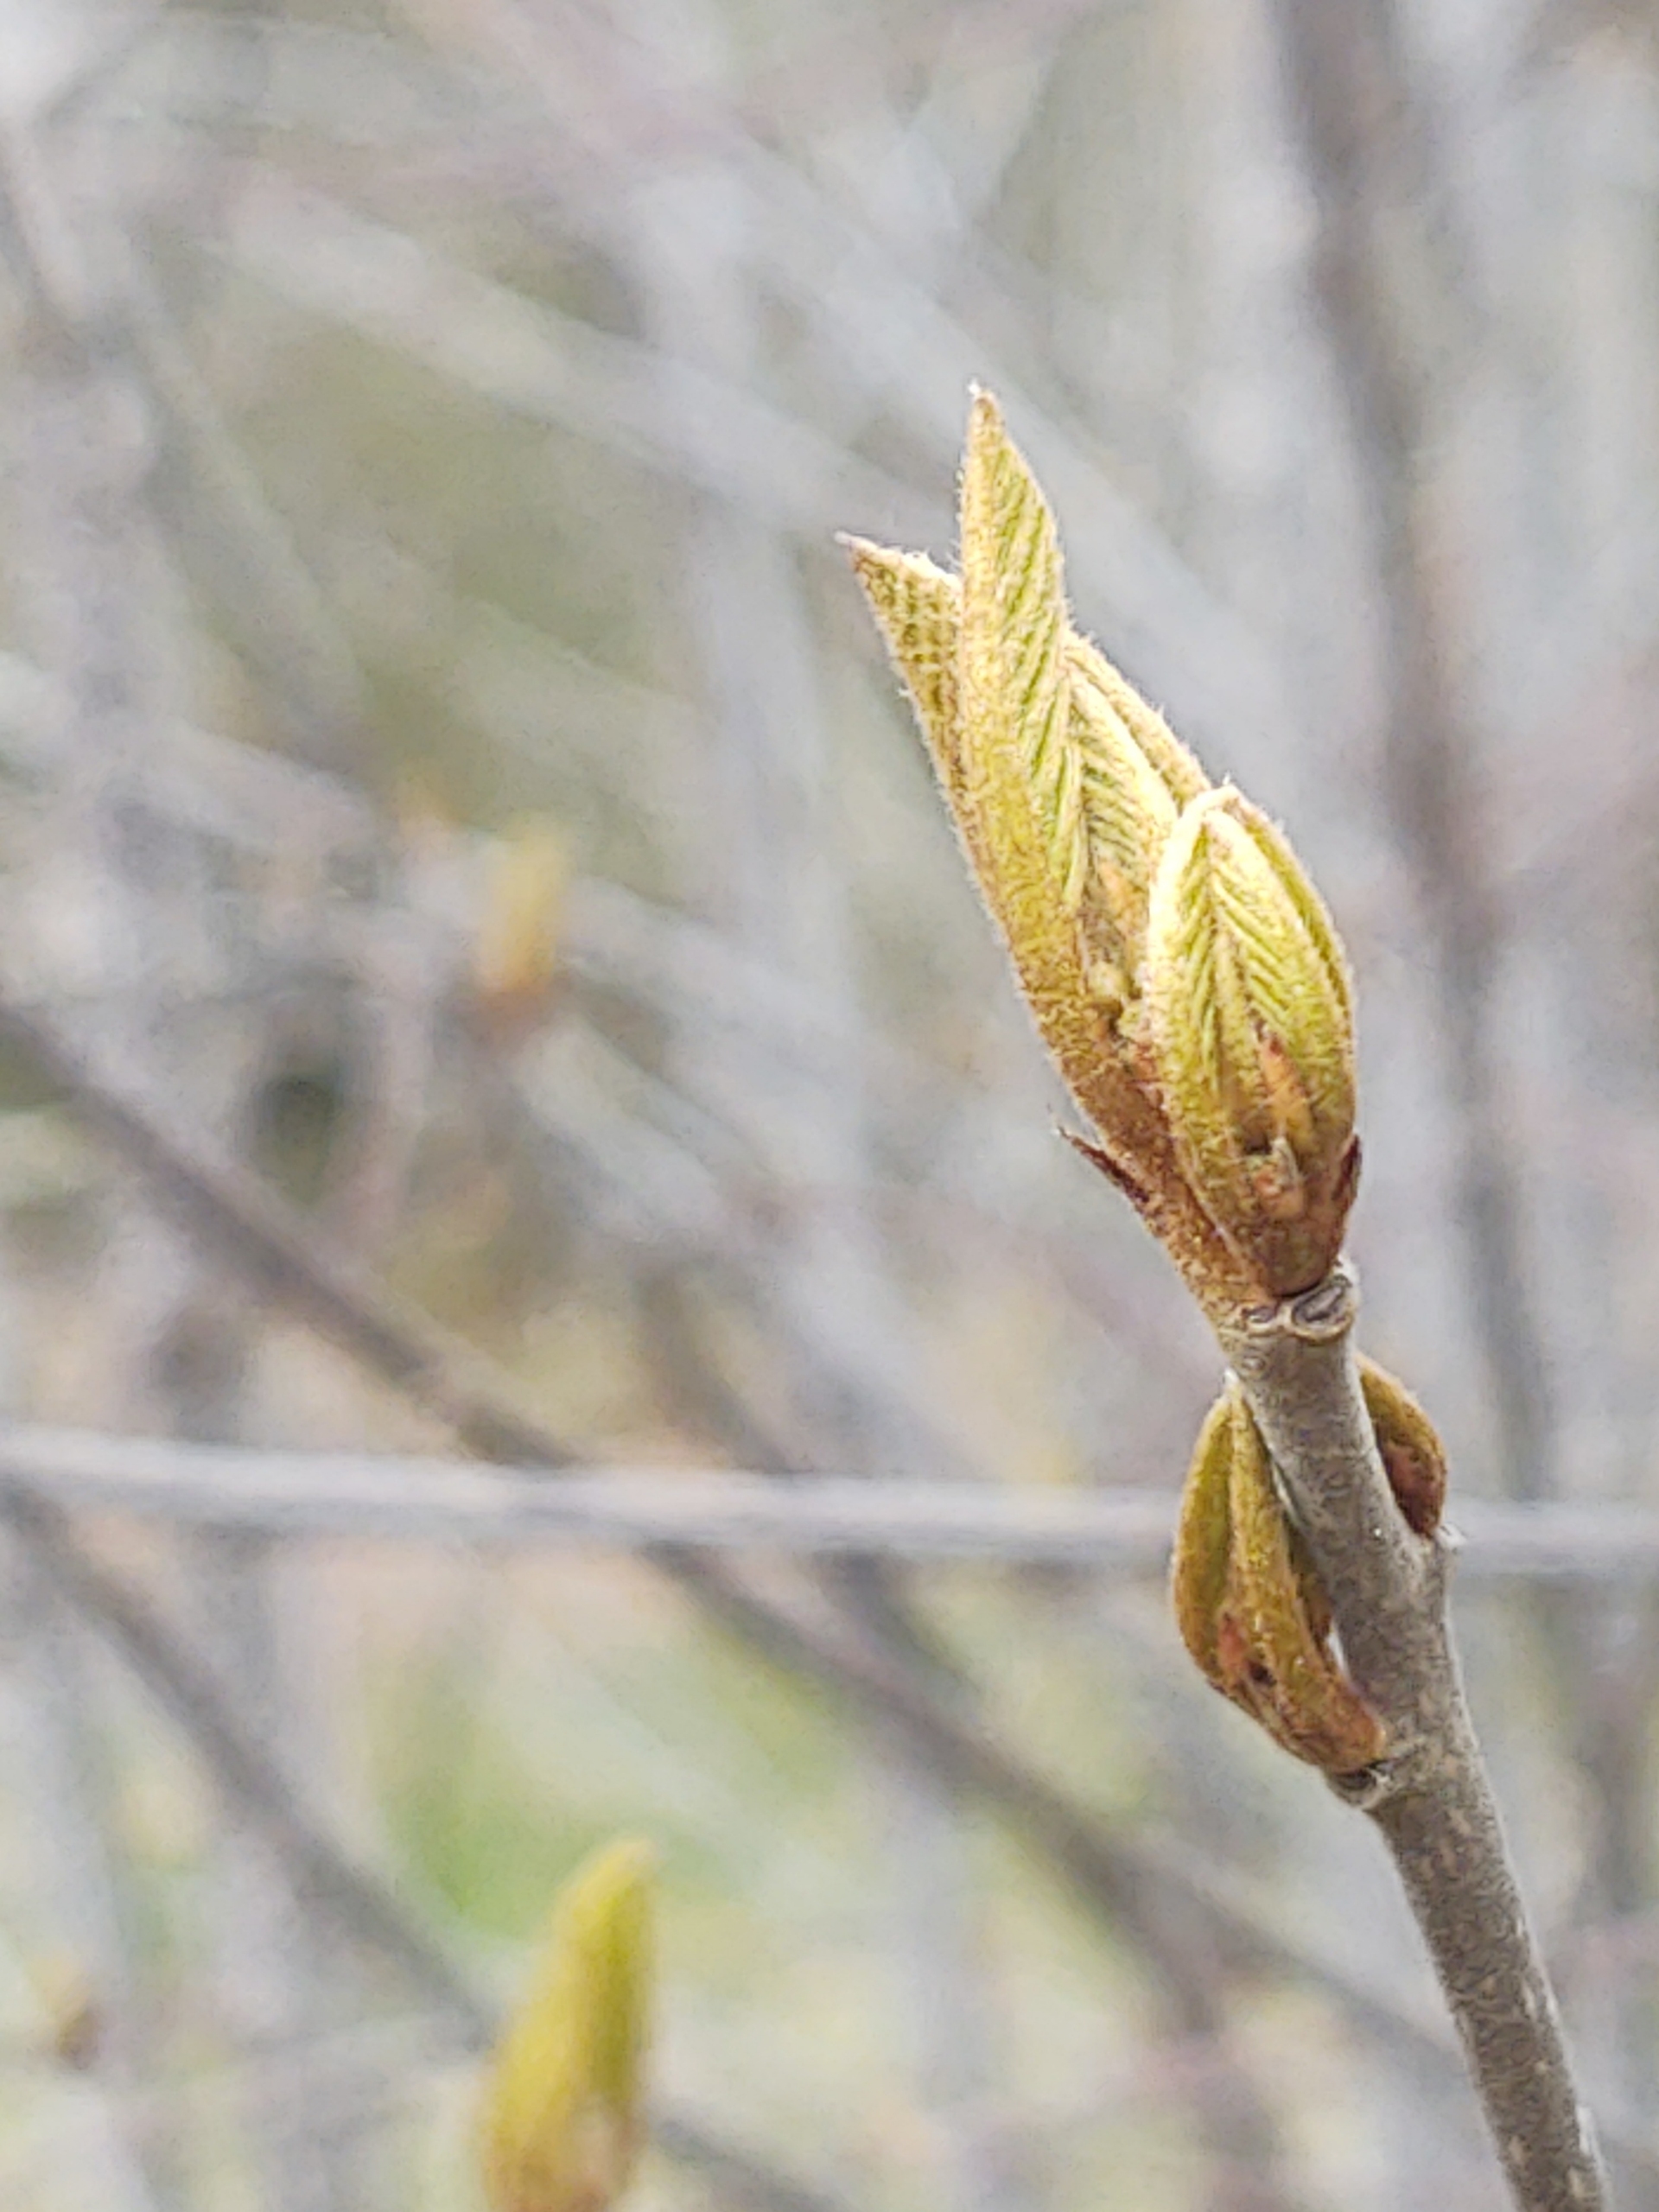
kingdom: Plantae
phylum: Tracheophyta
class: Magnoliopsida
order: Rosales
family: Rhamnaceae
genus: Frangula
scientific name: Frangula alnus
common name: Tørst
